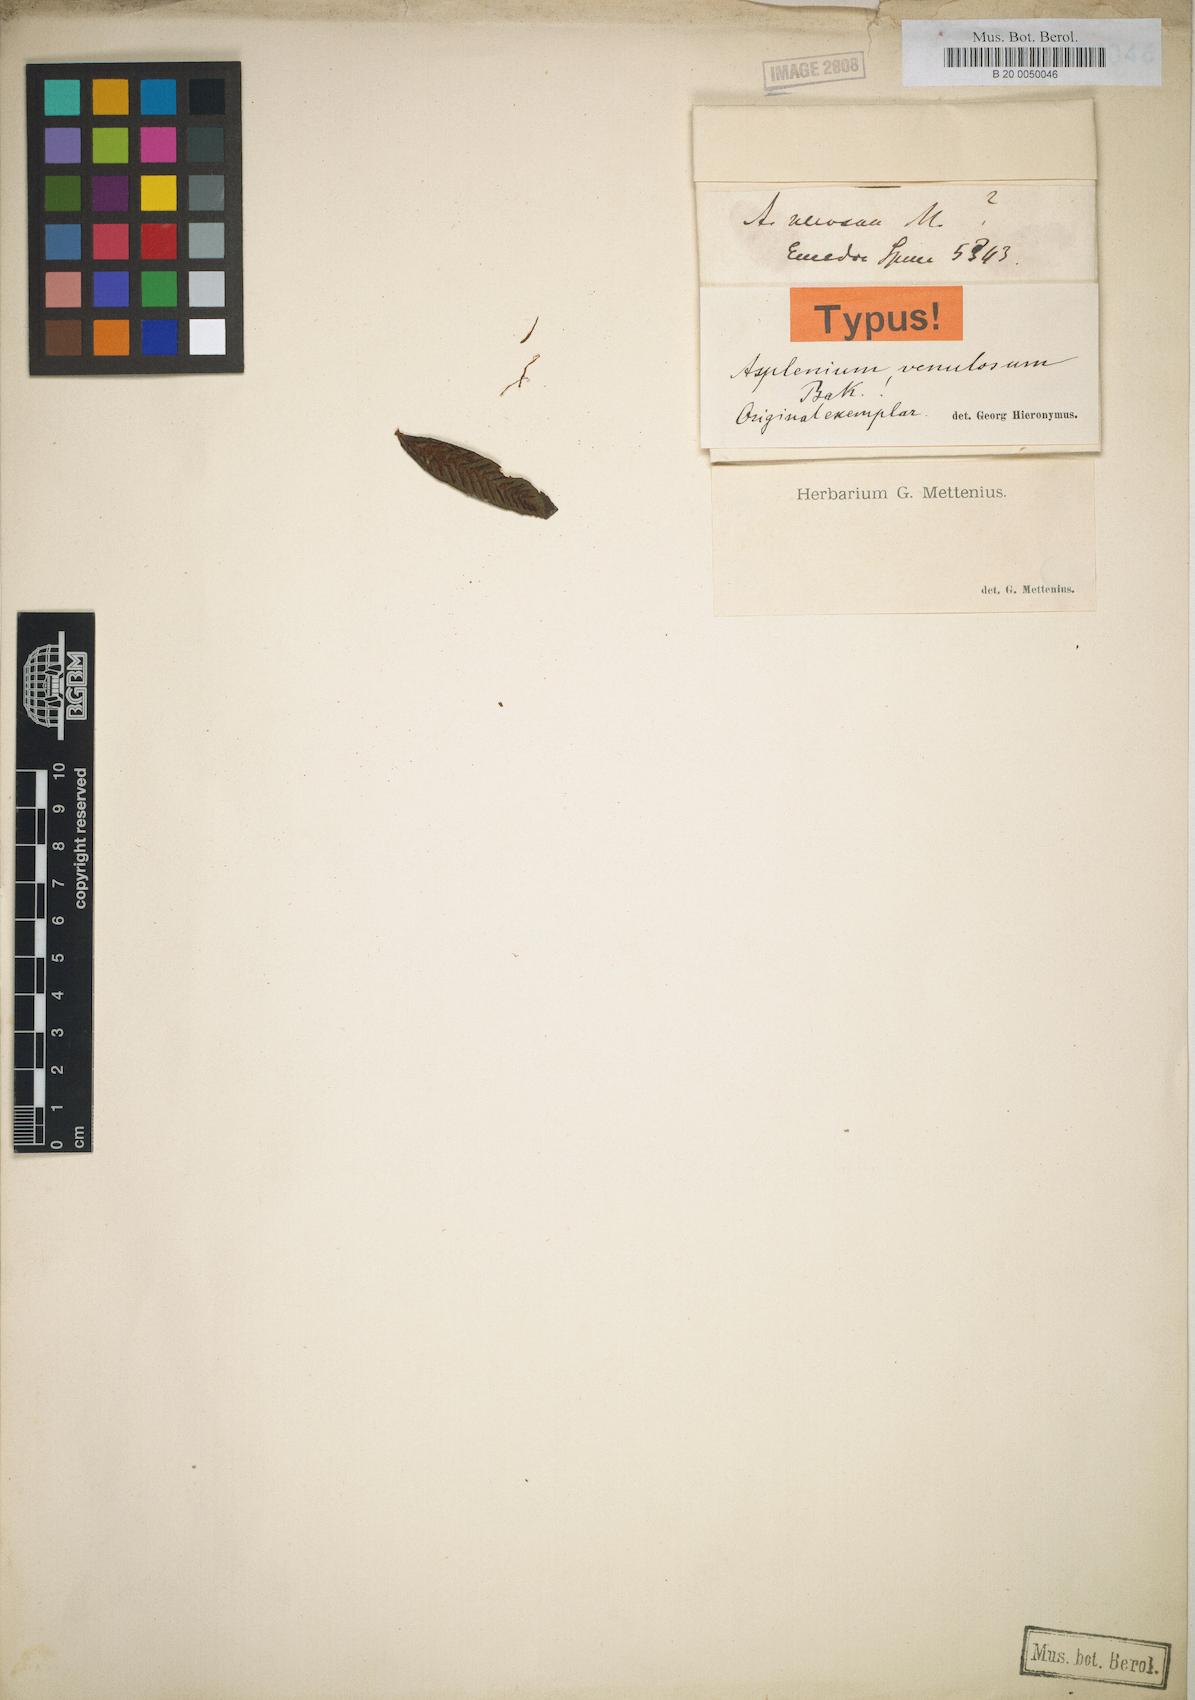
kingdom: Plantae
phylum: Tracheophyta
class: Polypodiopsida
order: Polypodiales
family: Athyriaceae
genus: Diplazium
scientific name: Diplazium venulosum
